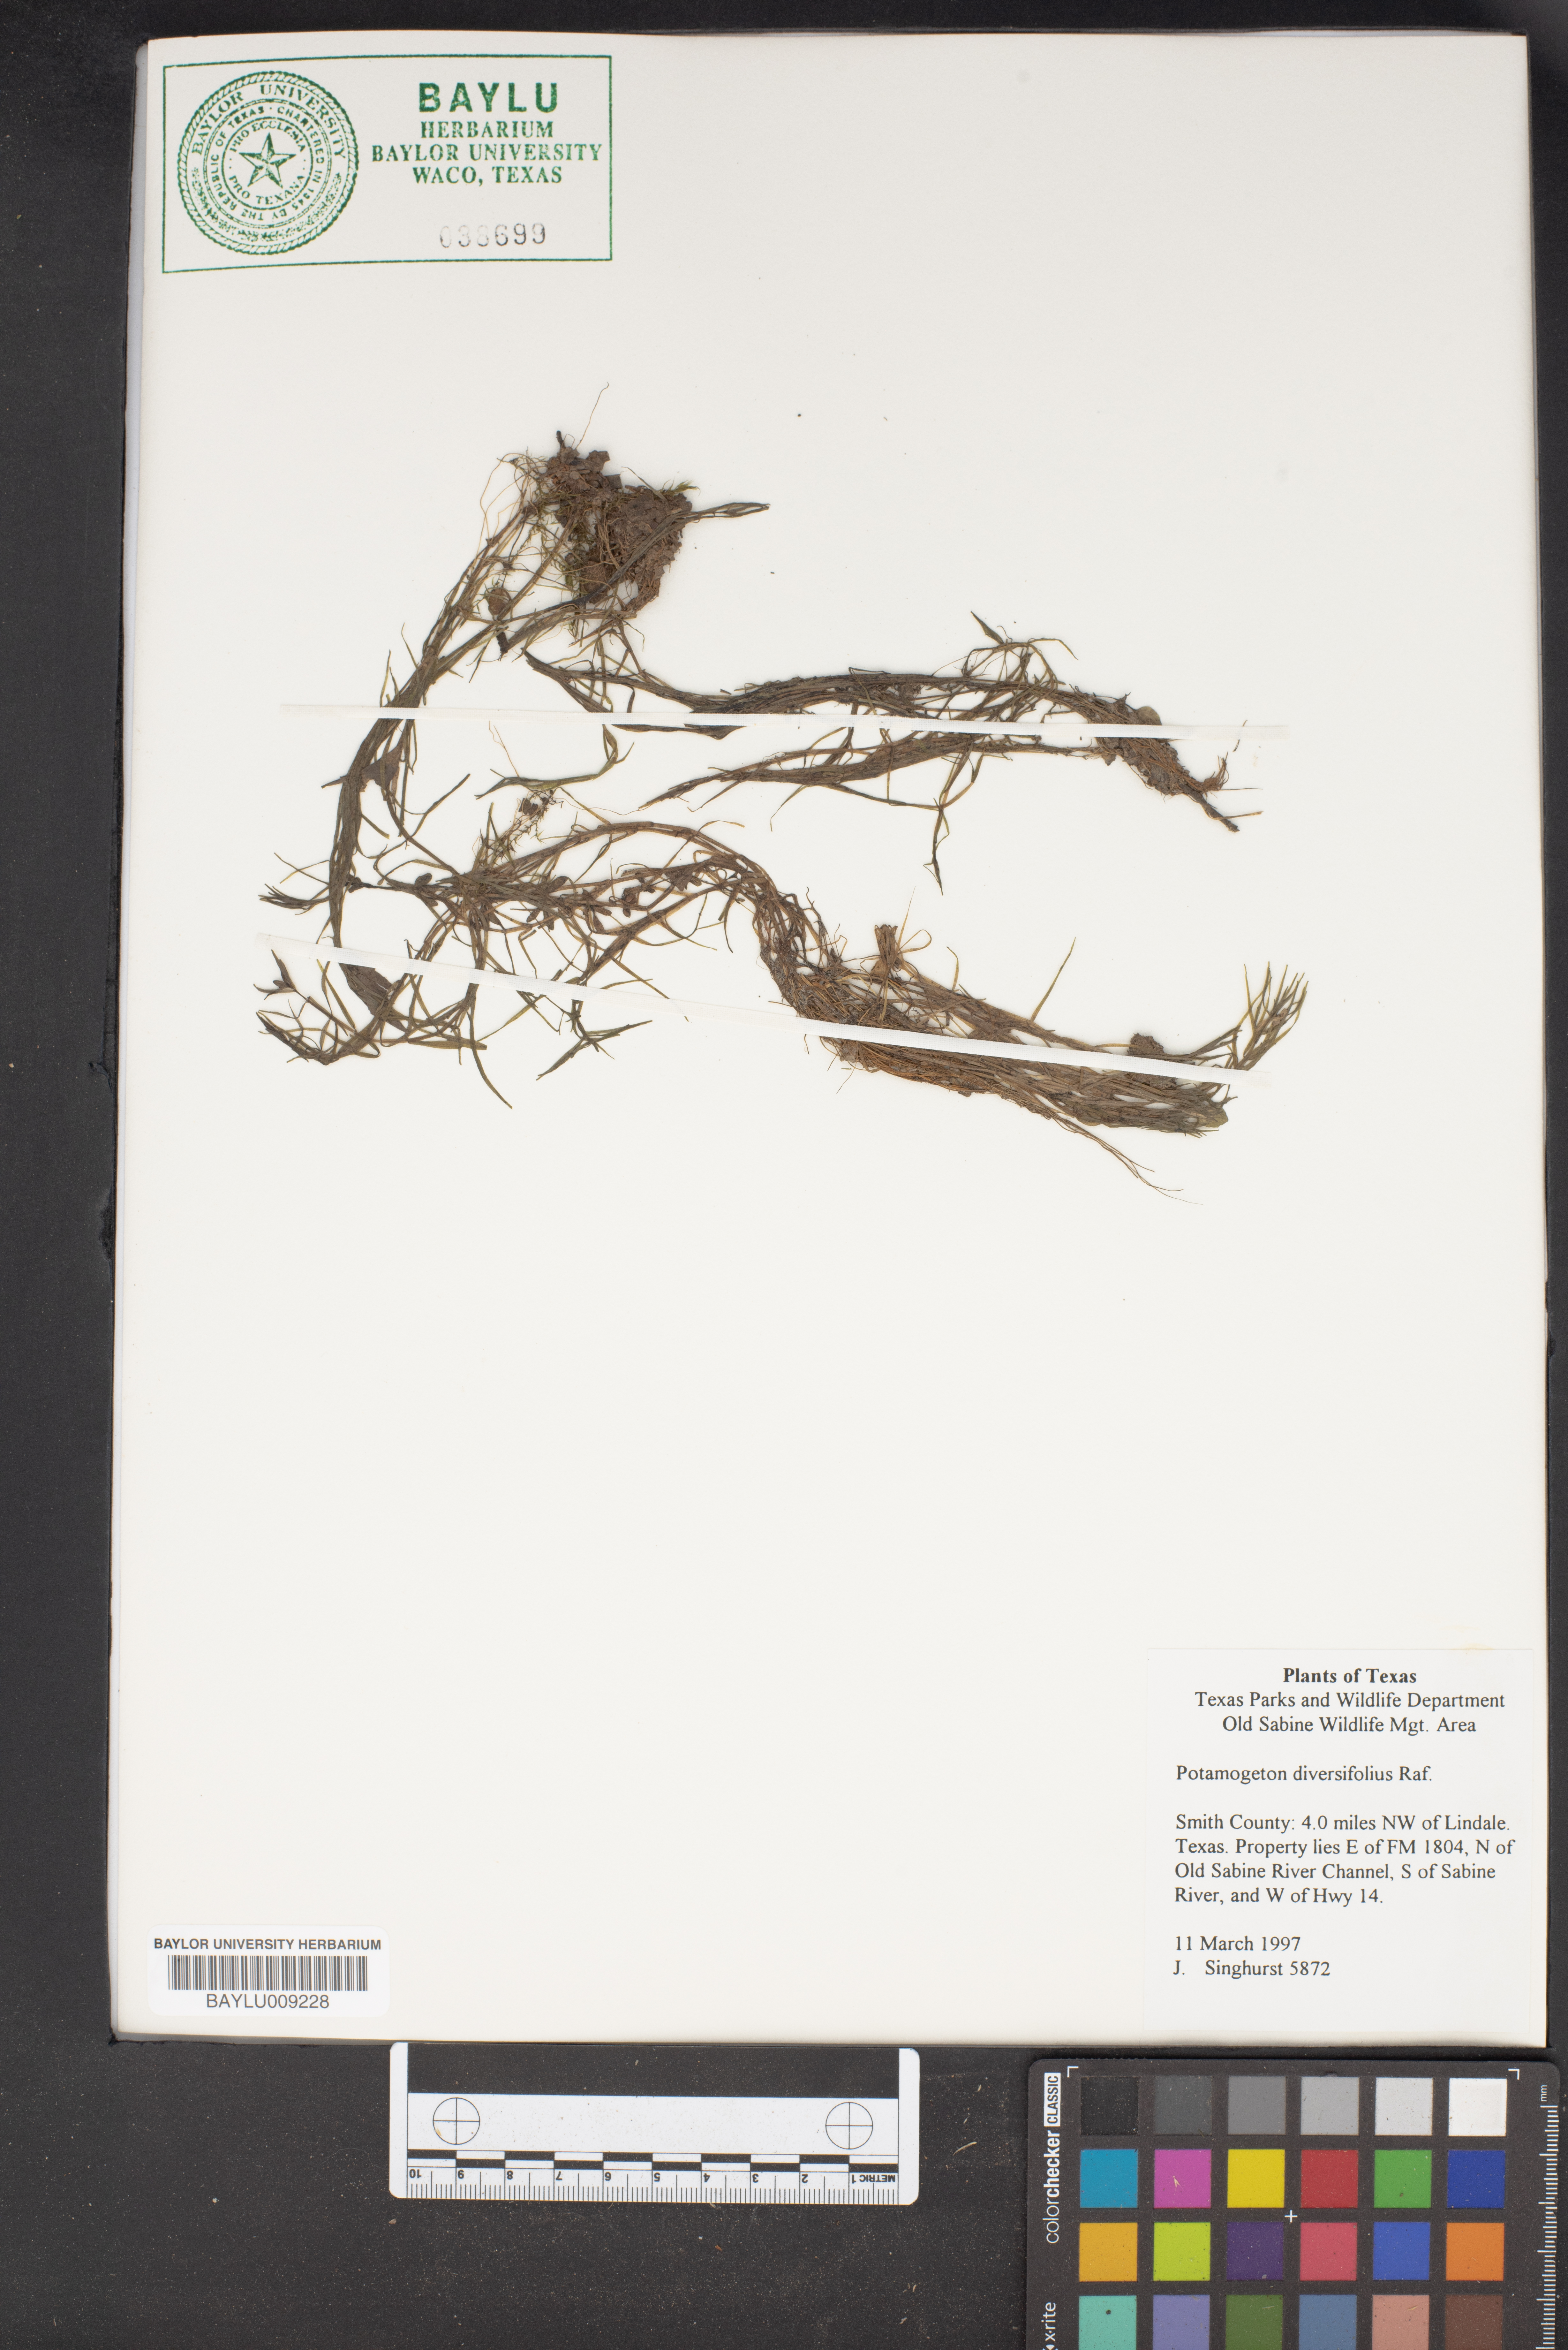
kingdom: Plantae
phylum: Tracheophyta
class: Liliopsida
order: Alismatales
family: Potamogetonaceae
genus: Potamogeton
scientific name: Potamogeton diversifolius
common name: Water-thread pondweed
